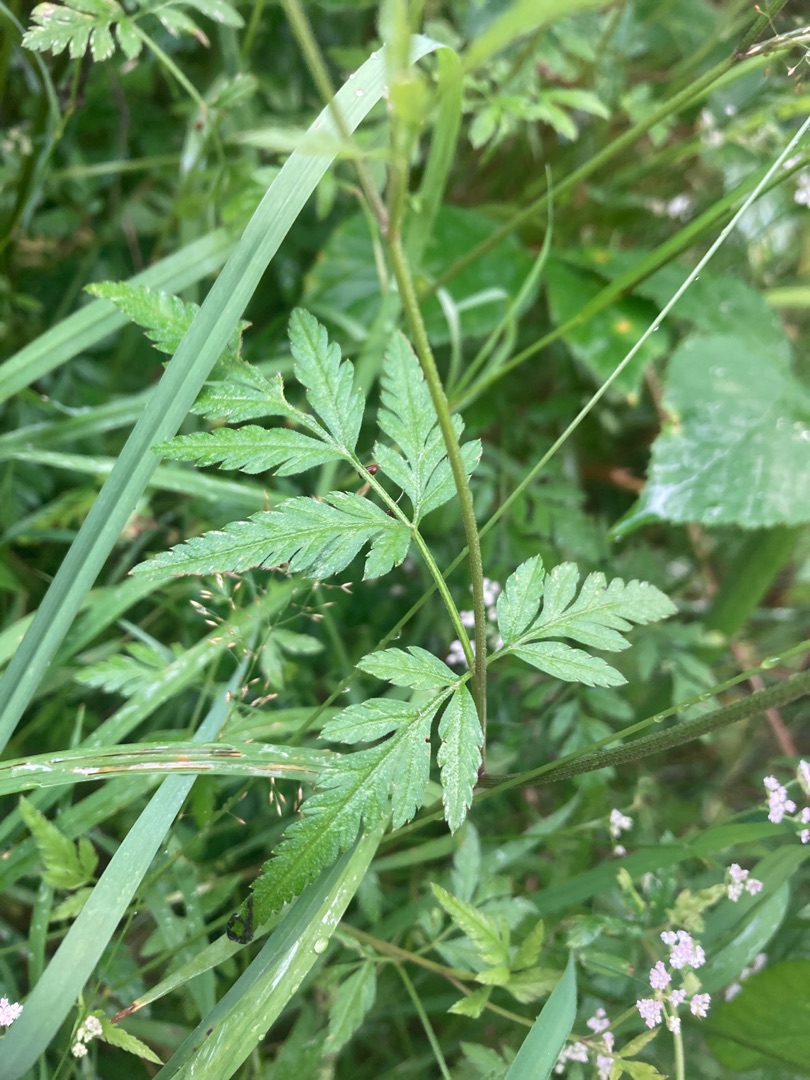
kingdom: Plantae
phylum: Tracheophyta
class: Magnoliopsida
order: Apiales
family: Apiaceae
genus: Torilis
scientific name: Torilis japonica
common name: Hvas randfrø
